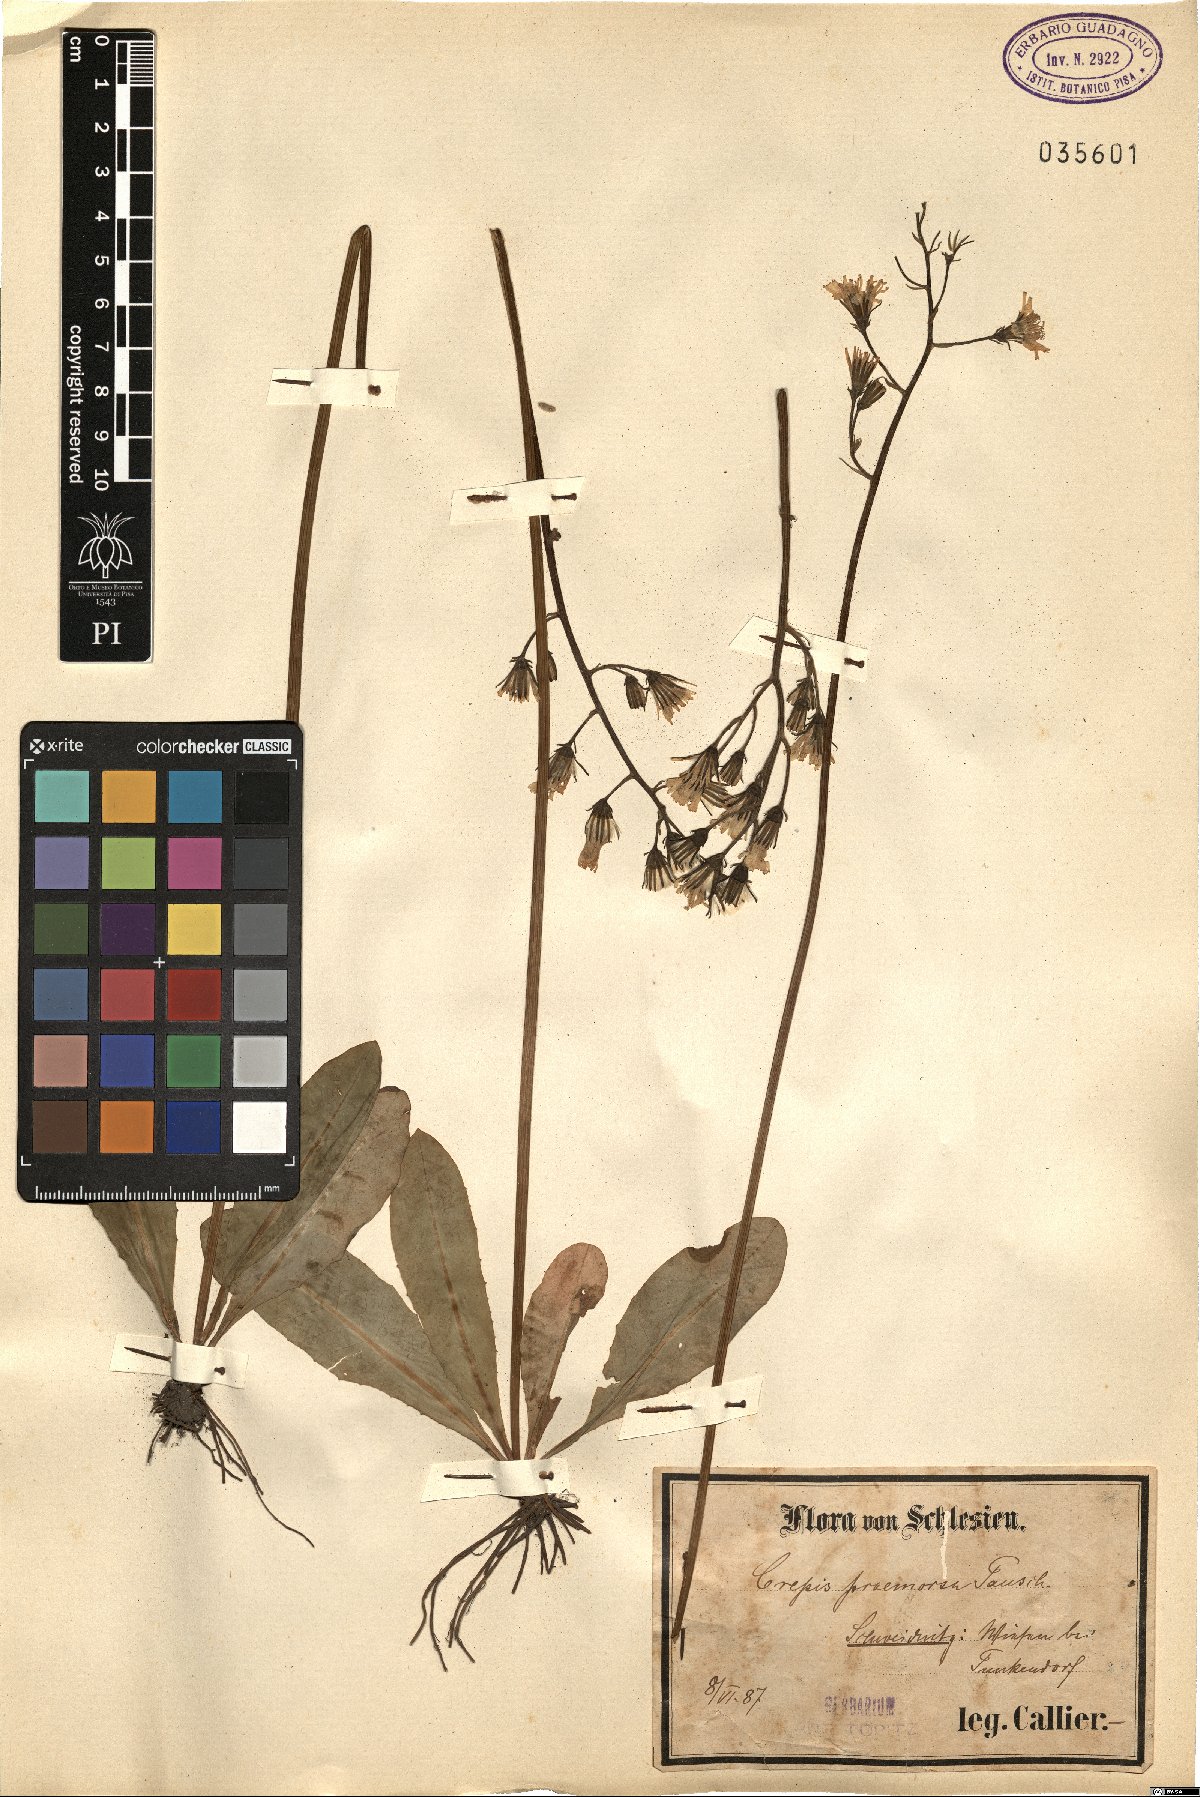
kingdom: Plantae
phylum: Tracheophyta
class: Magnoliopsida
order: Asterales
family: Asteraceae
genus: Crepis
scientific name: Crepis praemorsa
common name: Leafless hawk's-beard
